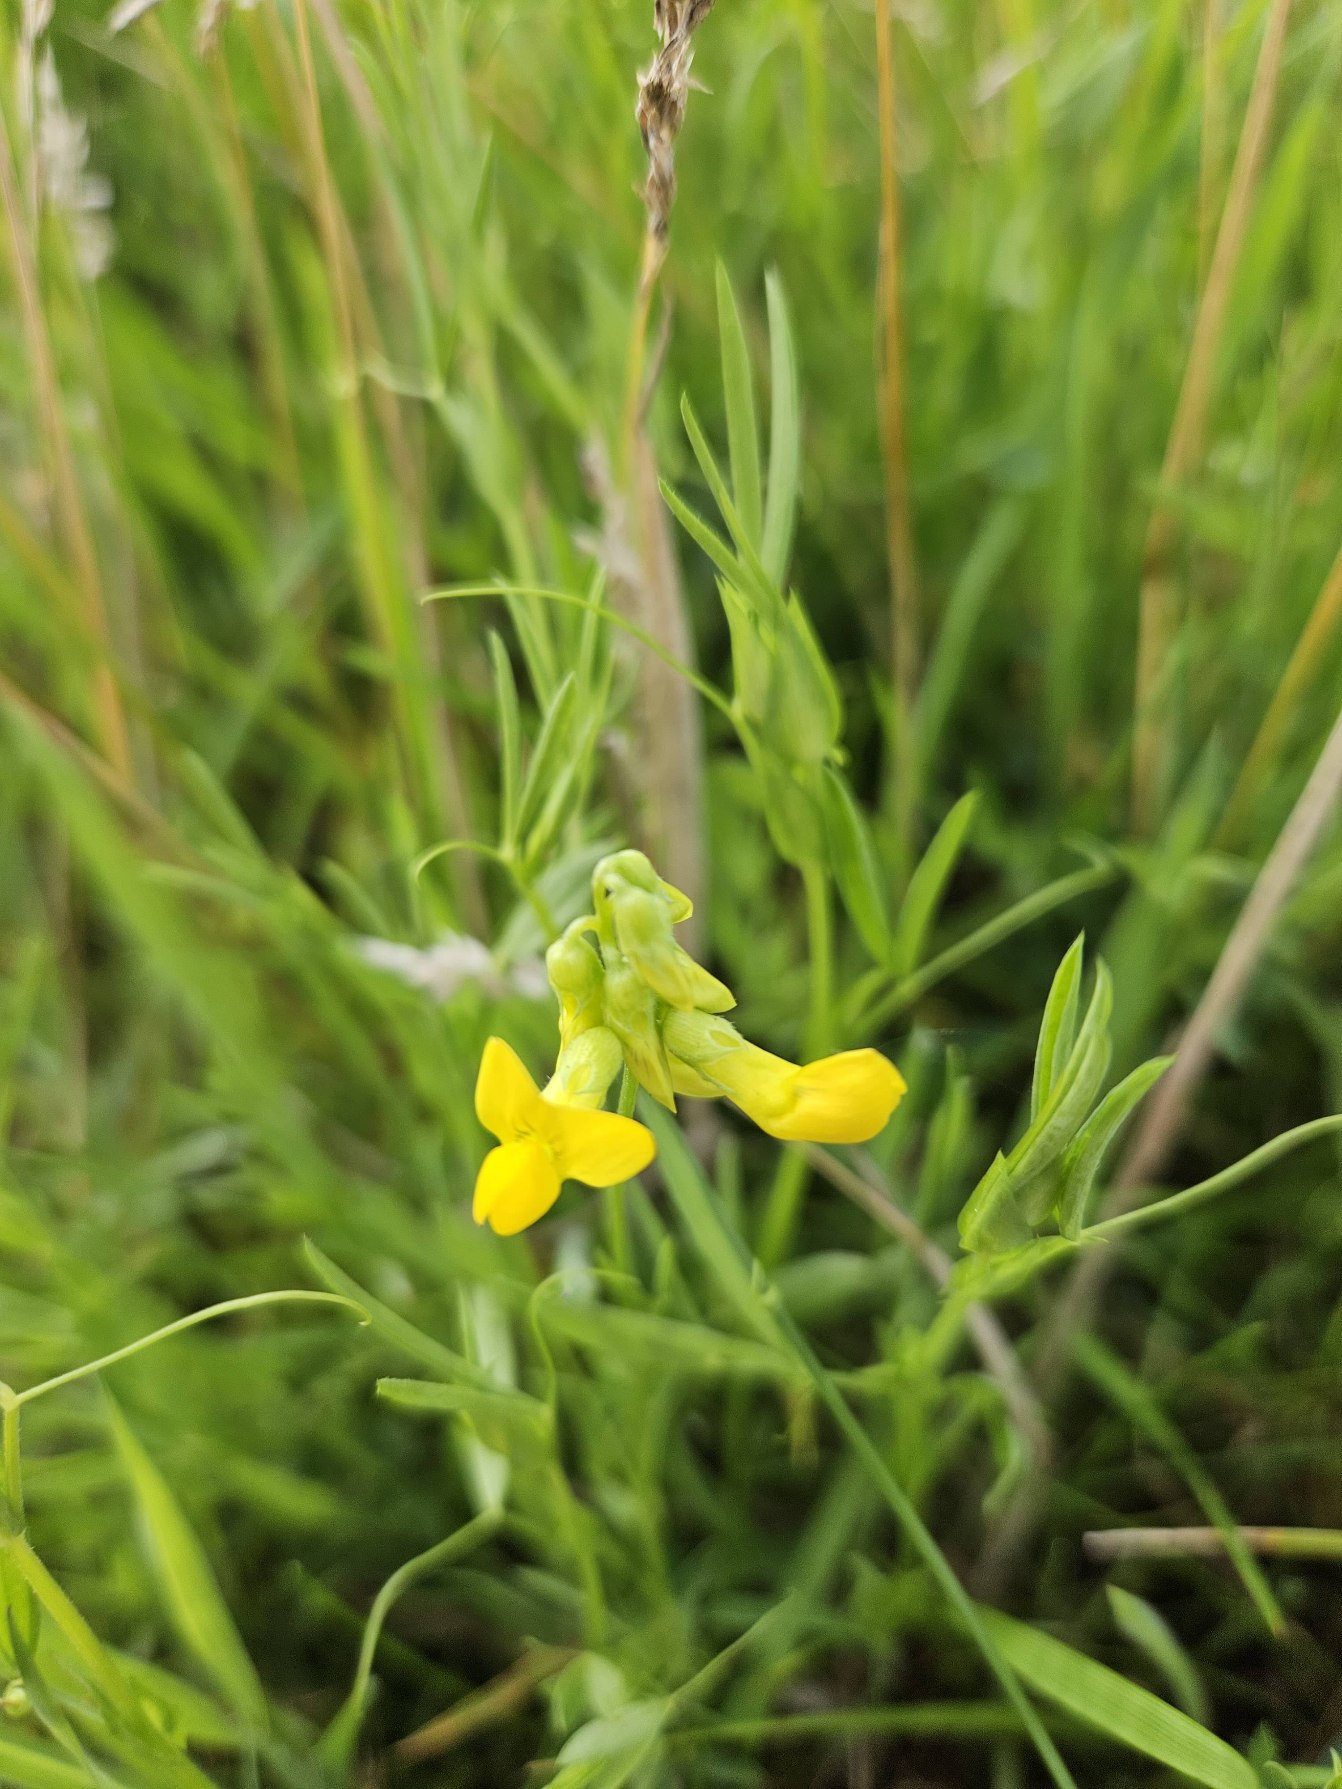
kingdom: Plantae
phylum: Tracheophyta
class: Magnoliopsida
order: Fabales
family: Fabaceae
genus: Lathyrus
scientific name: Lathyrus pratensis
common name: Gul fladbælg
